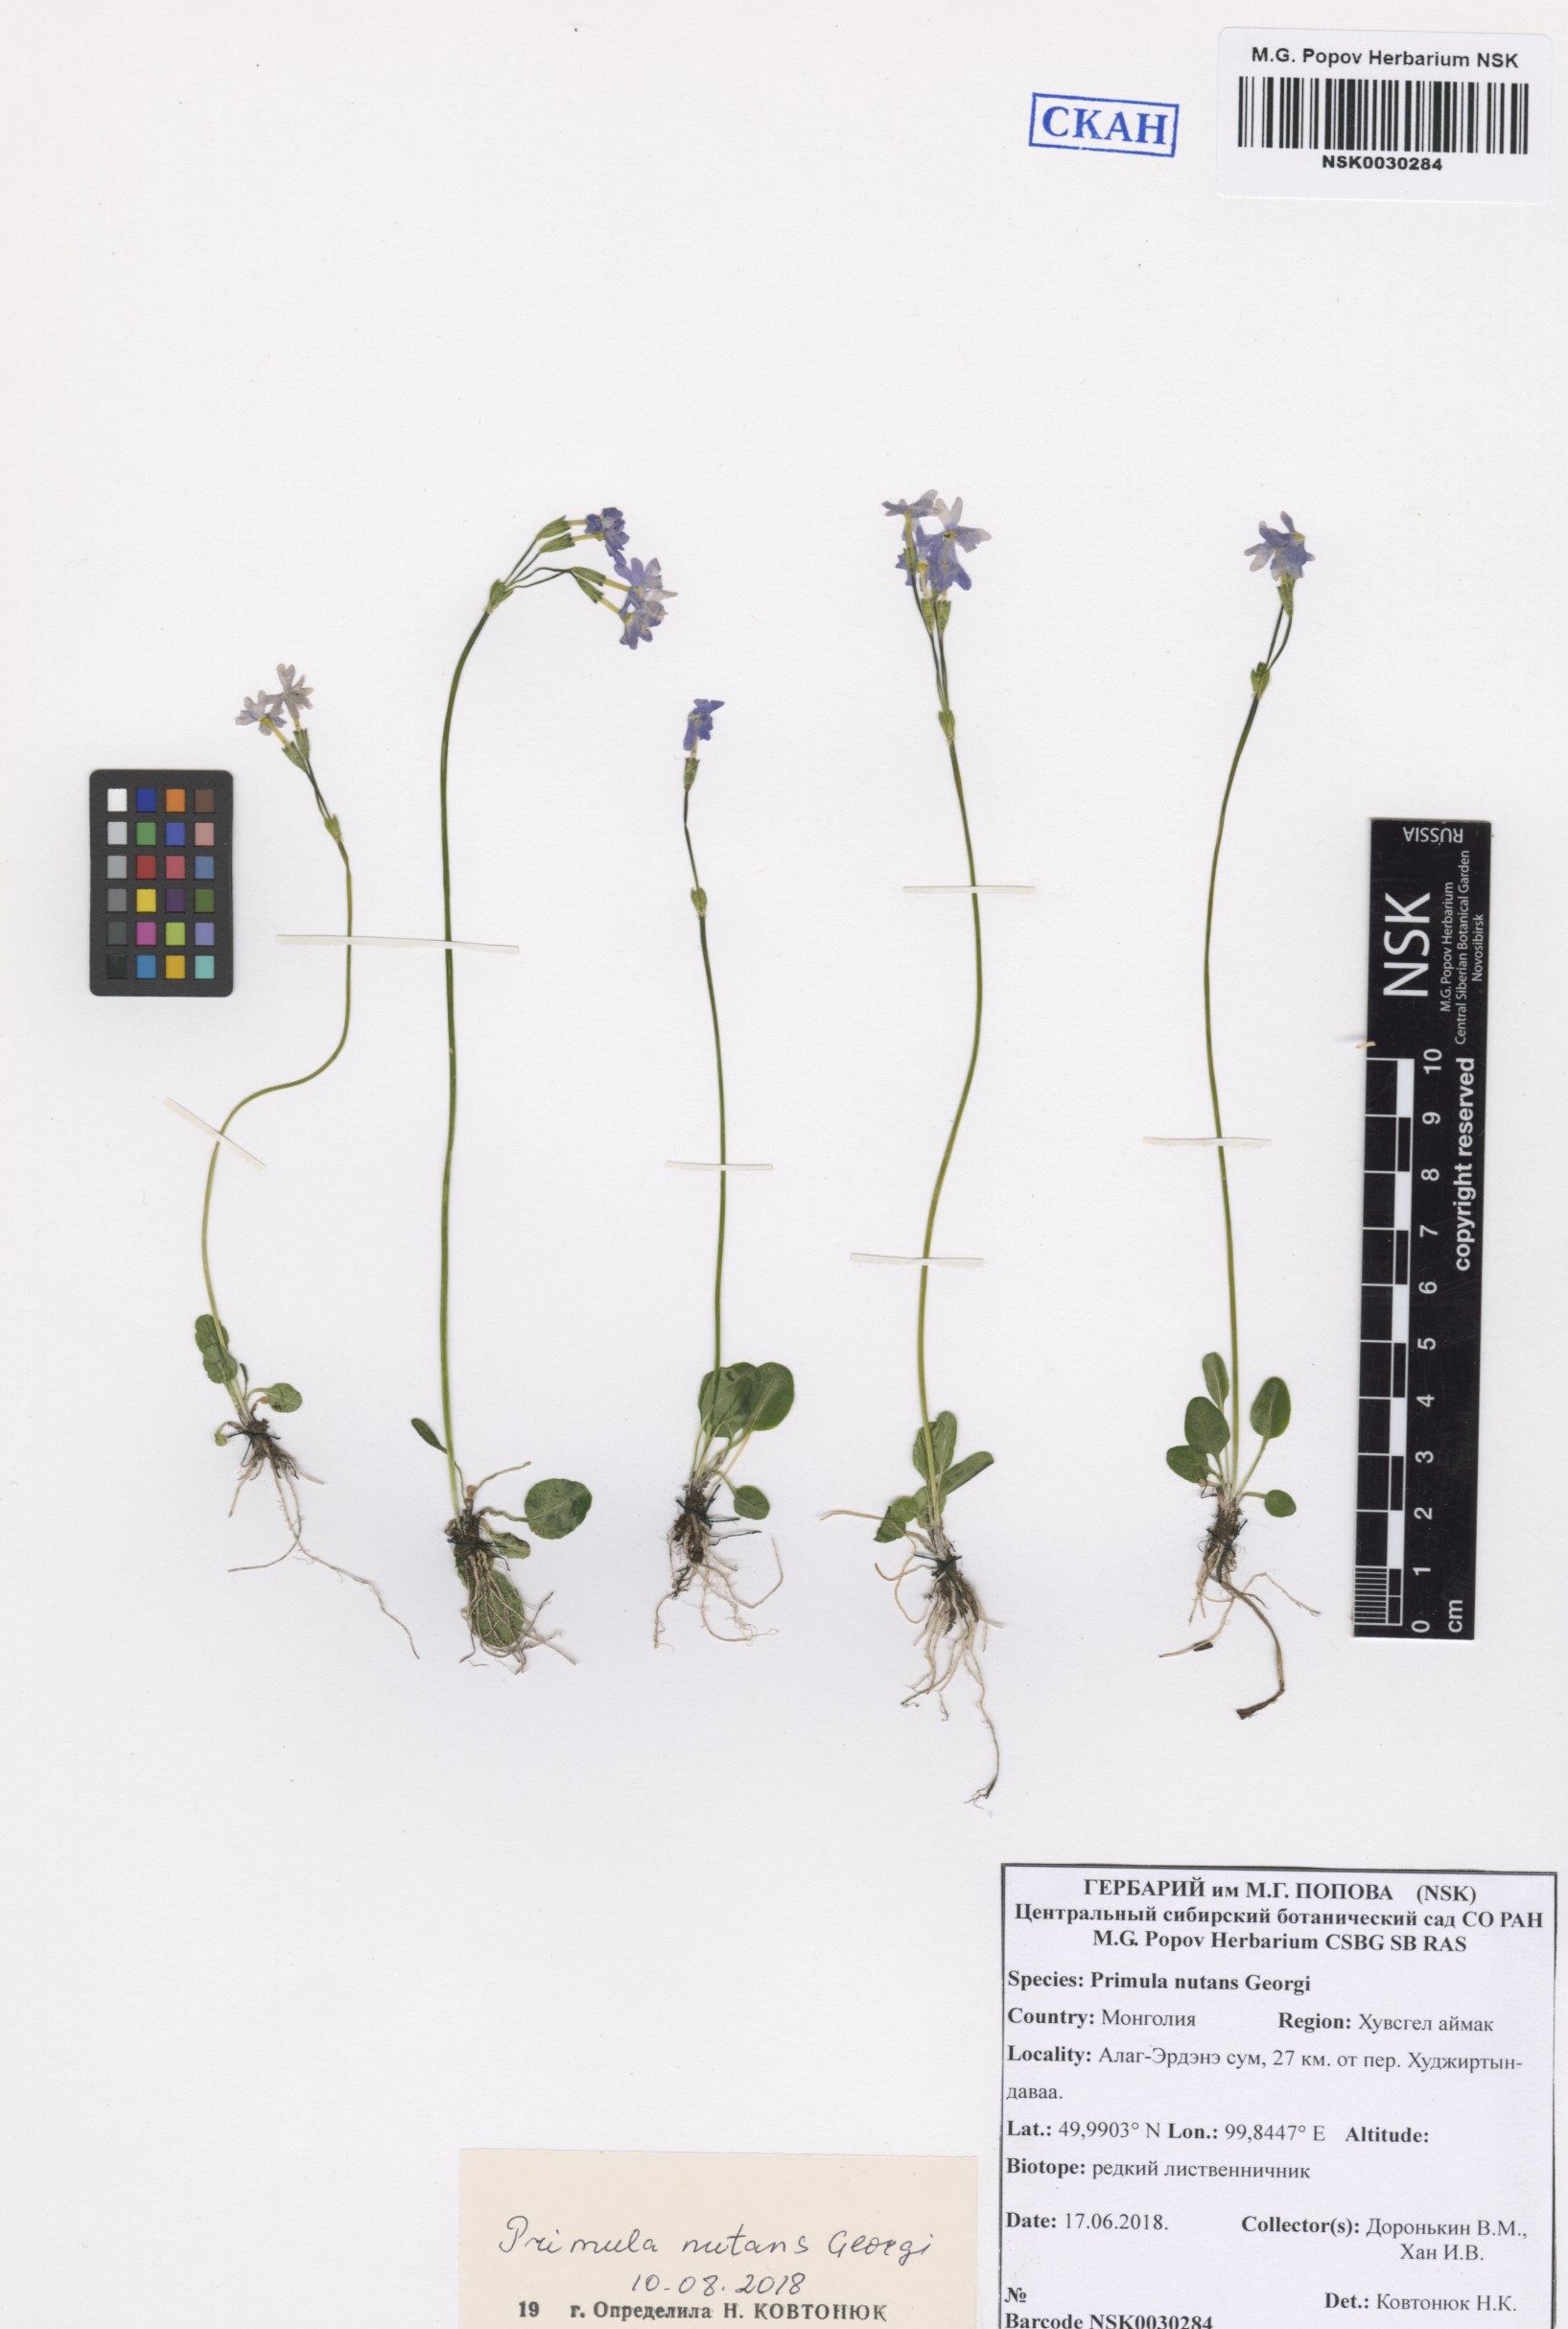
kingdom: Plantae
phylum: Tracheophyta
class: Magnoliopsida
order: Ericales
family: Primulaceae
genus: Primula
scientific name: Primula nutans
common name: Siberian primrose
